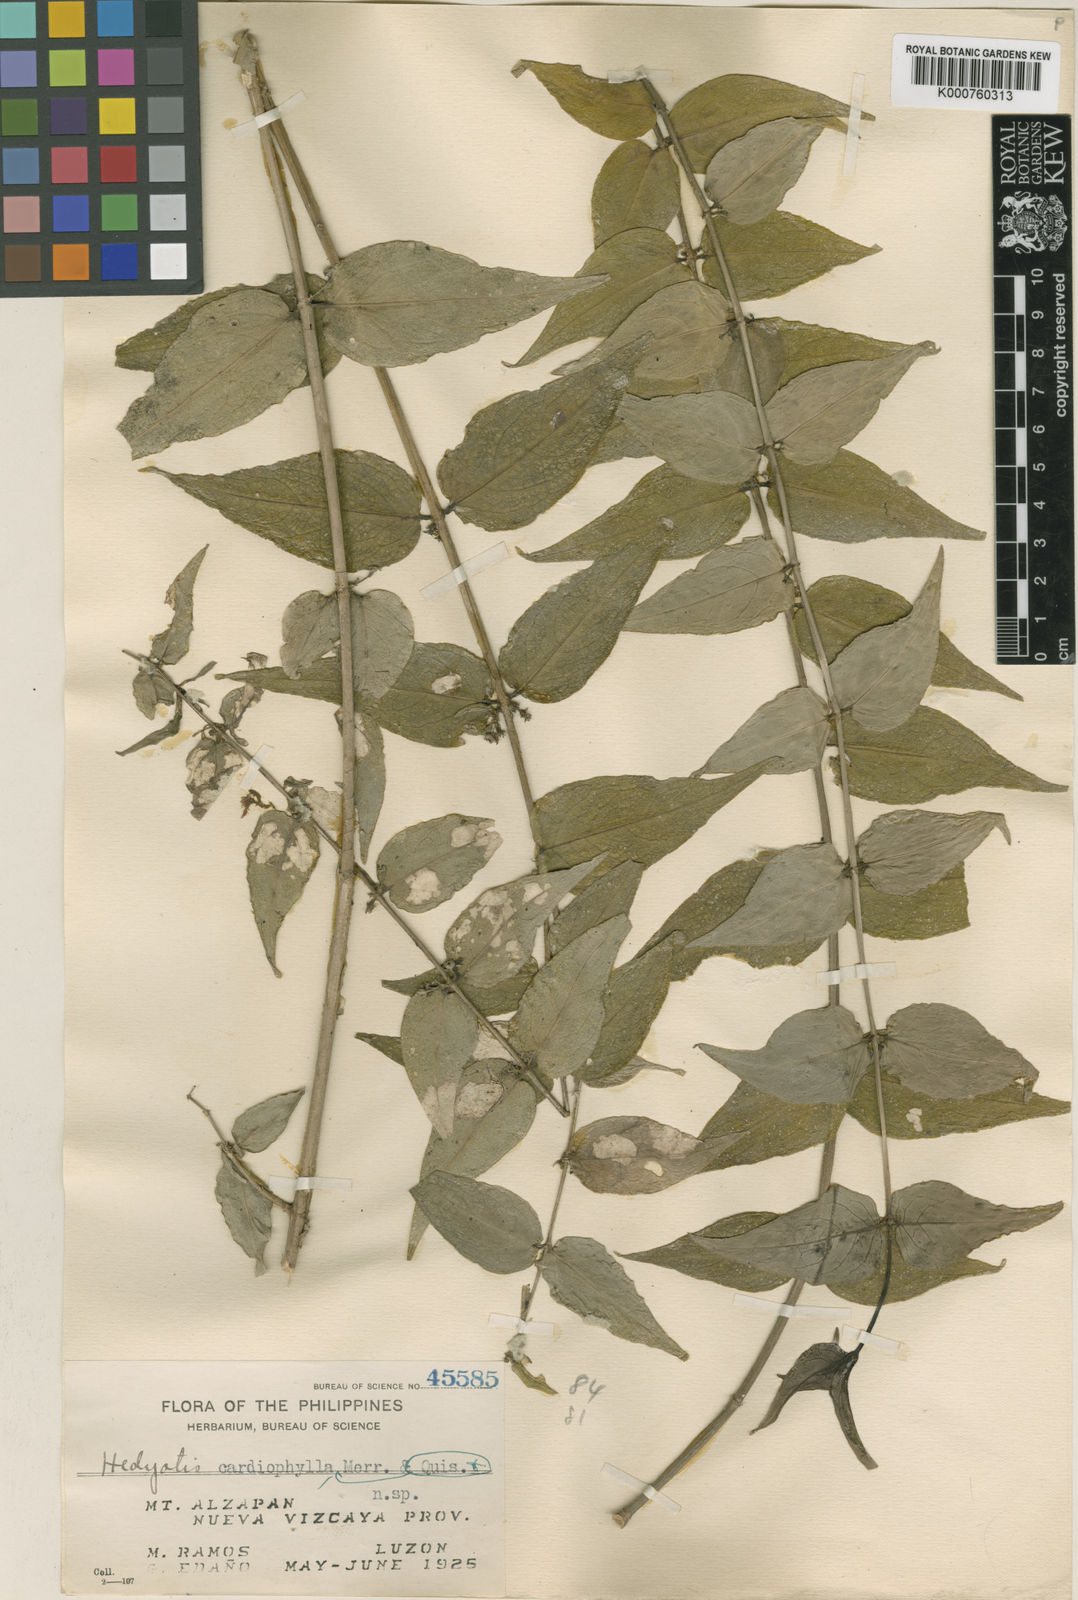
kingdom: Plantae
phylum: Tracheophyta
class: Magnoliopsida
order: Gentianales
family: Rubiaceae
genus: Hedyotis
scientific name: Hedyotis cardiophylla
